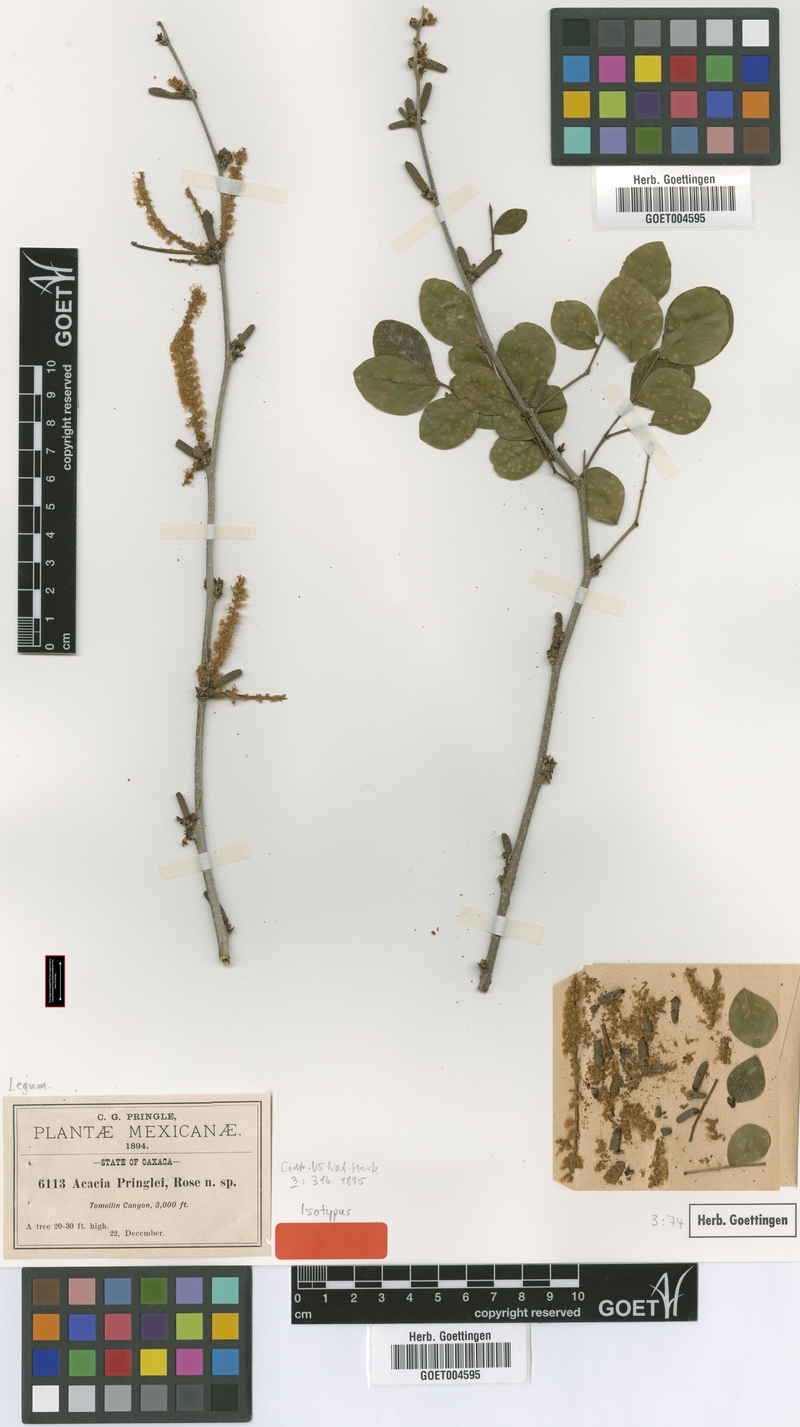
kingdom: Plantae
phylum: Tracheophyta
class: Magnoliopsida
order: Fabales
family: Fabaceae
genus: Vachellia
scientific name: Vachellia pringlei
